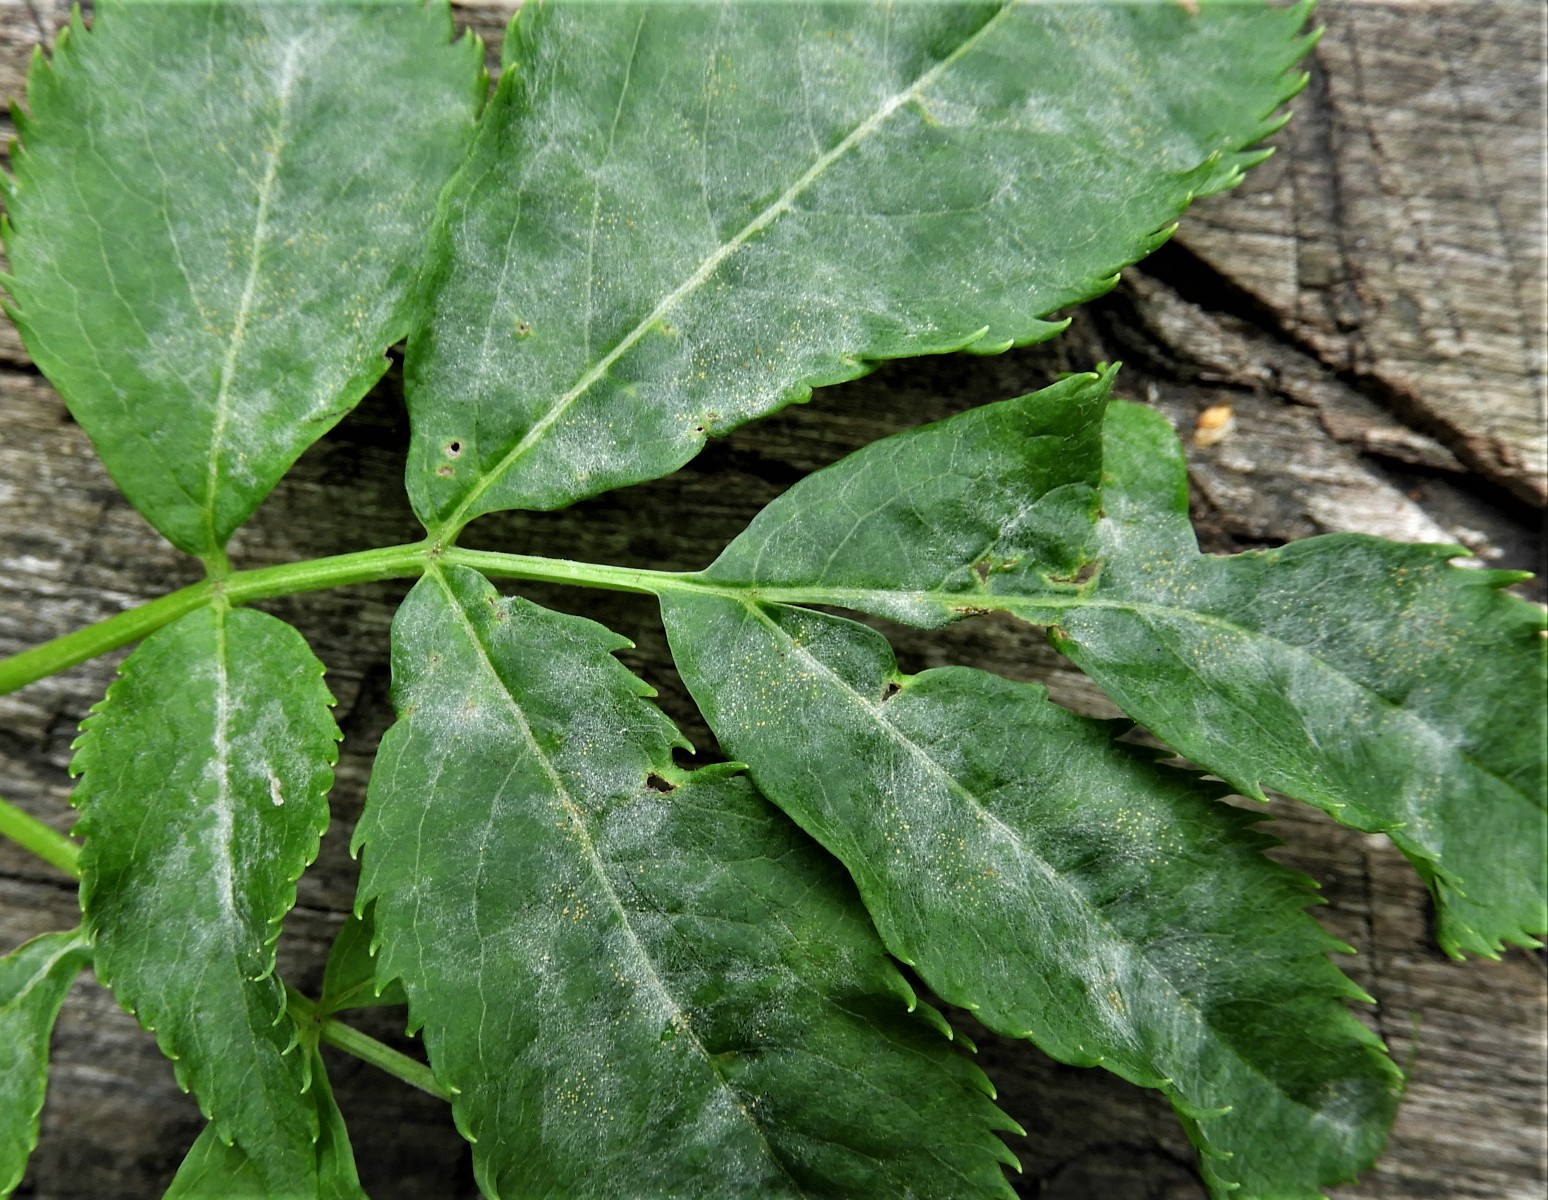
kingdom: Fungi
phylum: Ascomycota
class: Leotiomycetes
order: Helotiales
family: Erysiphaceae
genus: Erysiphe
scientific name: Erysiphe vanbruntiana
